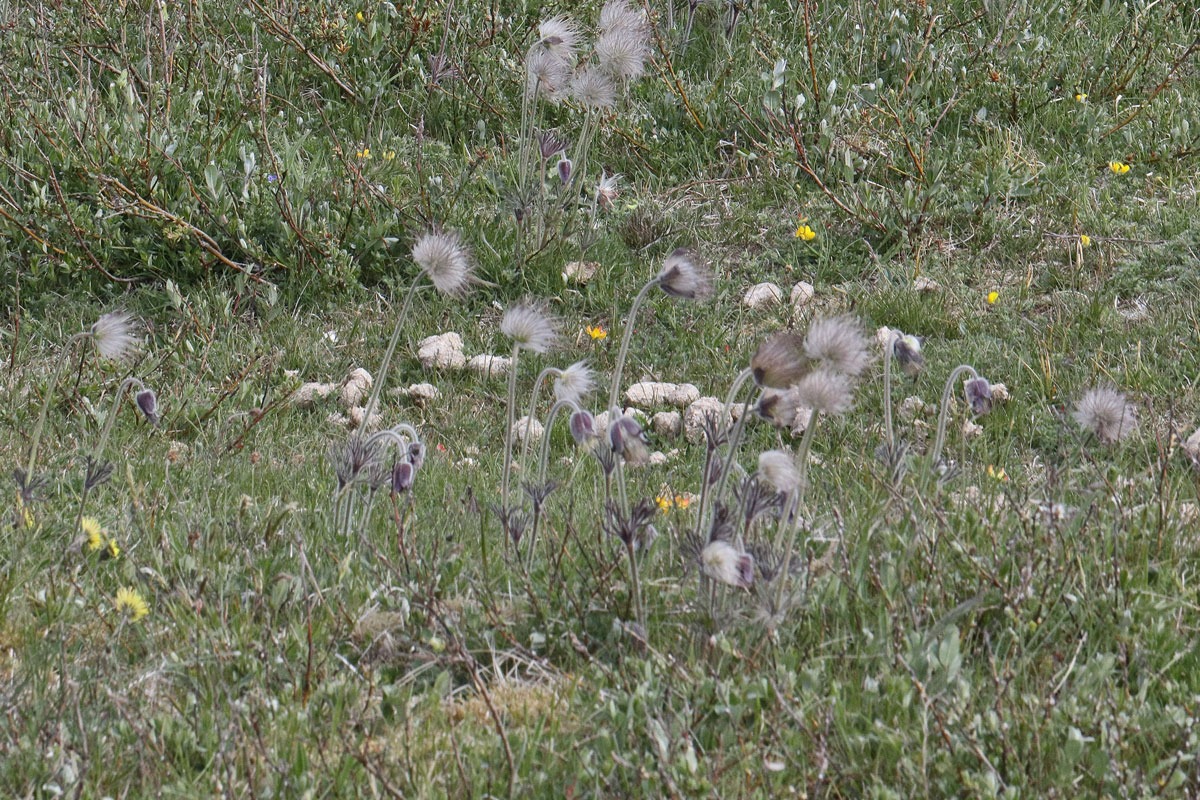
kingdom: Plantae
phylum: Tracheophyta
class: Magnoliopsida
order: Ranunculales
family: Ranunculaceae
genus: Pulsatilla
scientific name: Pulsatilla pratensis
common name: Nikkende kobjælde
